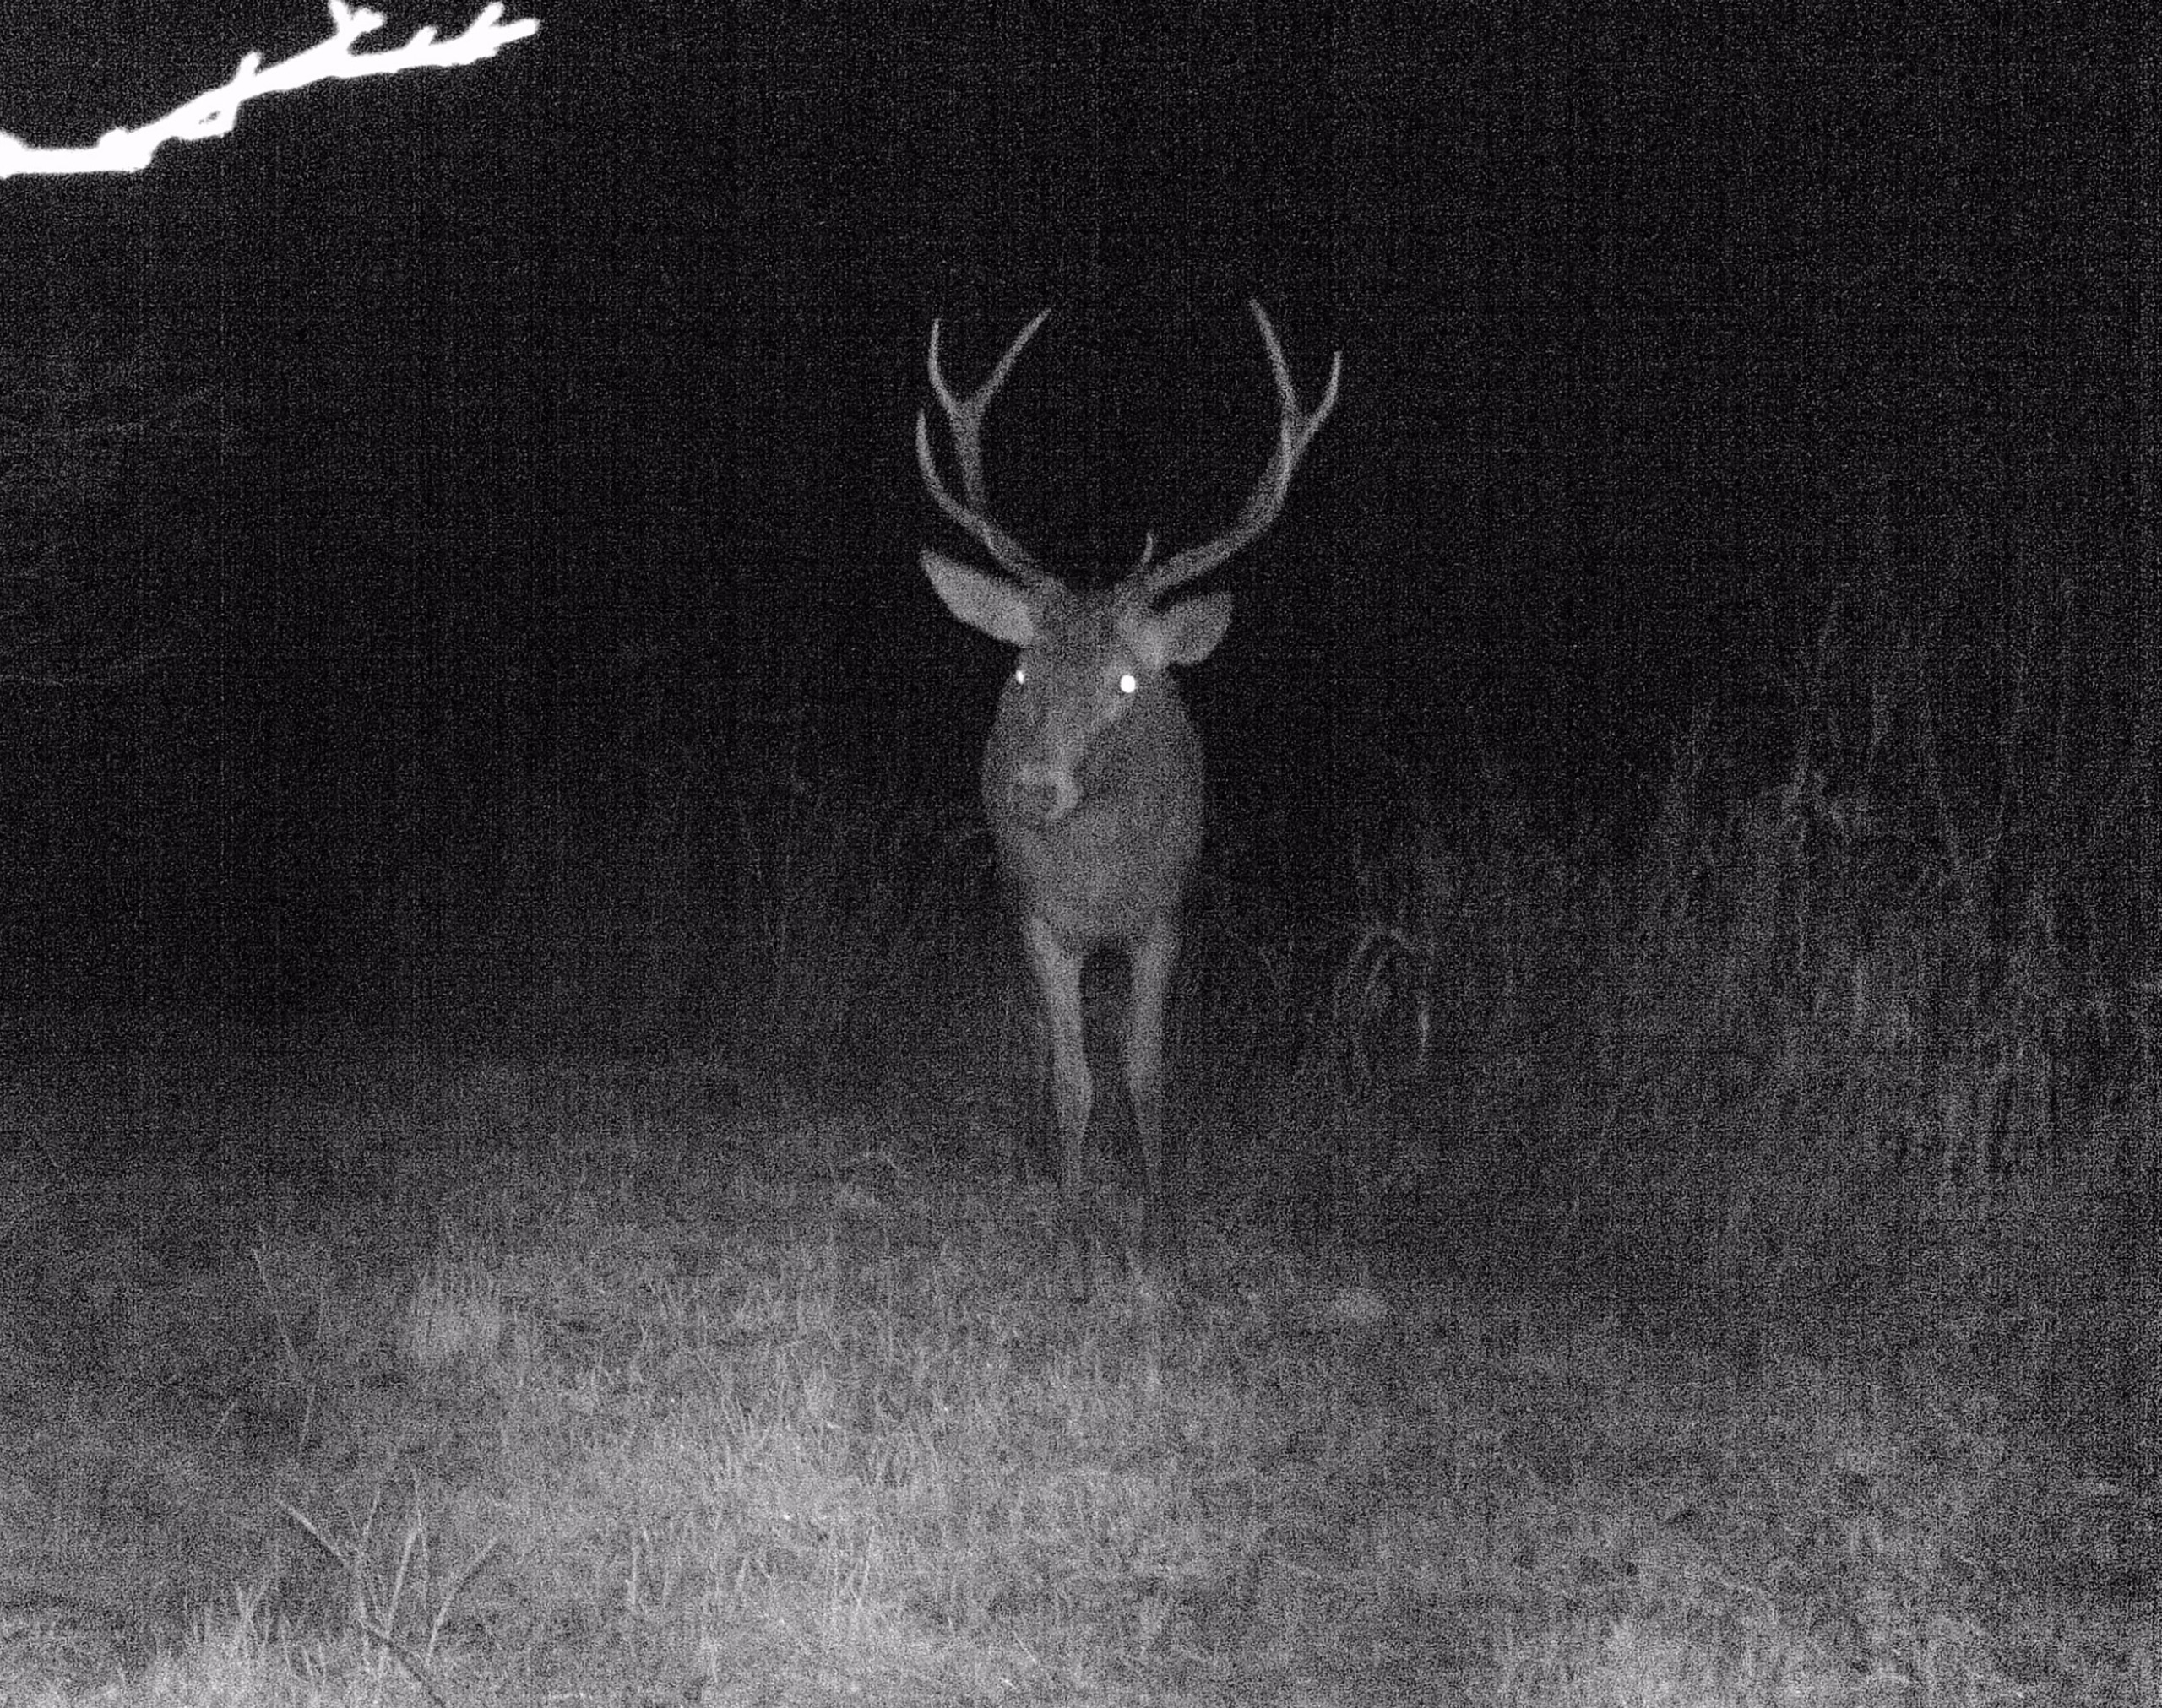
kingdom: Animalia
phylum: Chordata
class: Mammalia
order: Artiodactyla
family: Cervidae
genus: Cervus
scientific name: Cervus elaphus
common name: Krondyr
